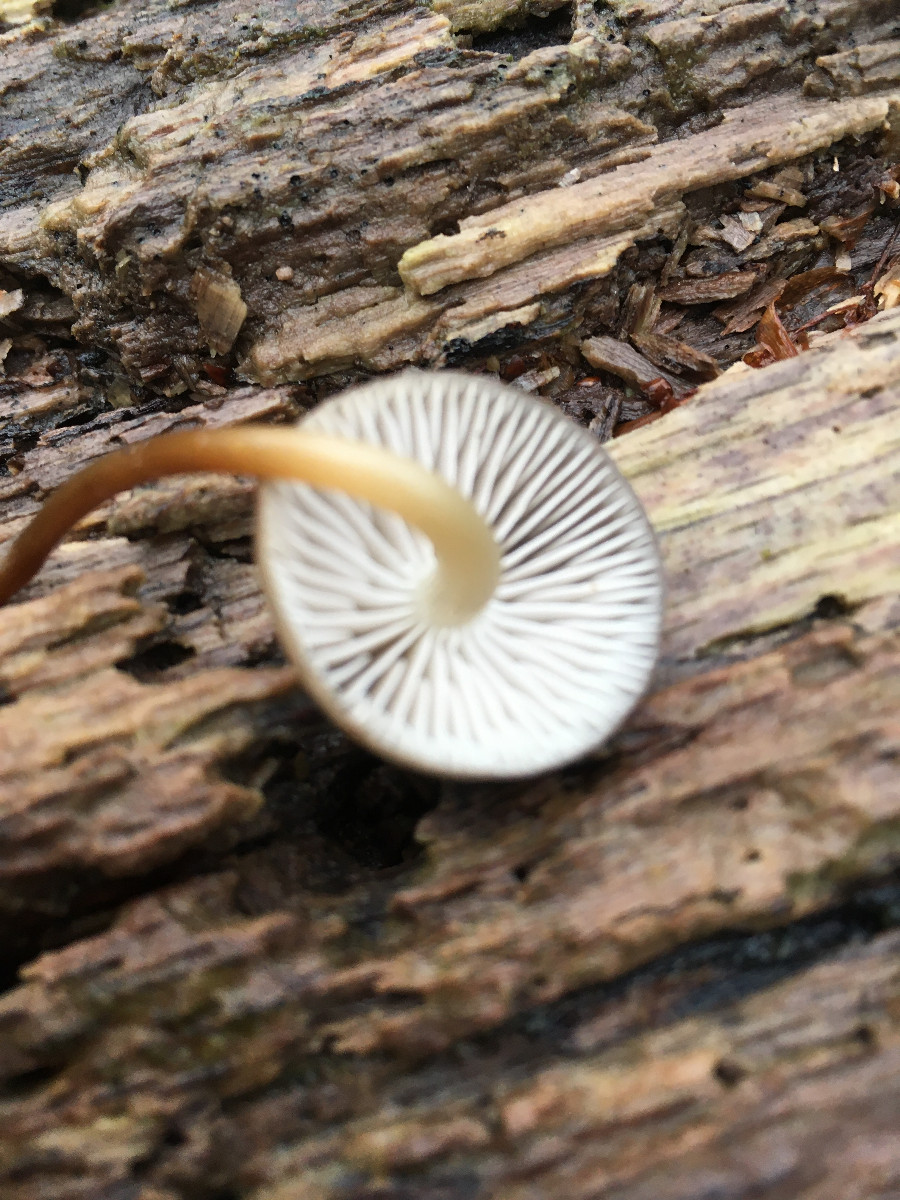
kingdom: Fungi
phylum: Basidiomycota
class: Agaricomycetes
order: Agaricales
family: Mycenaceae
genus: Mycena
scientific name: Mycena tintinnabulum
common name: vinter-huesvamp
